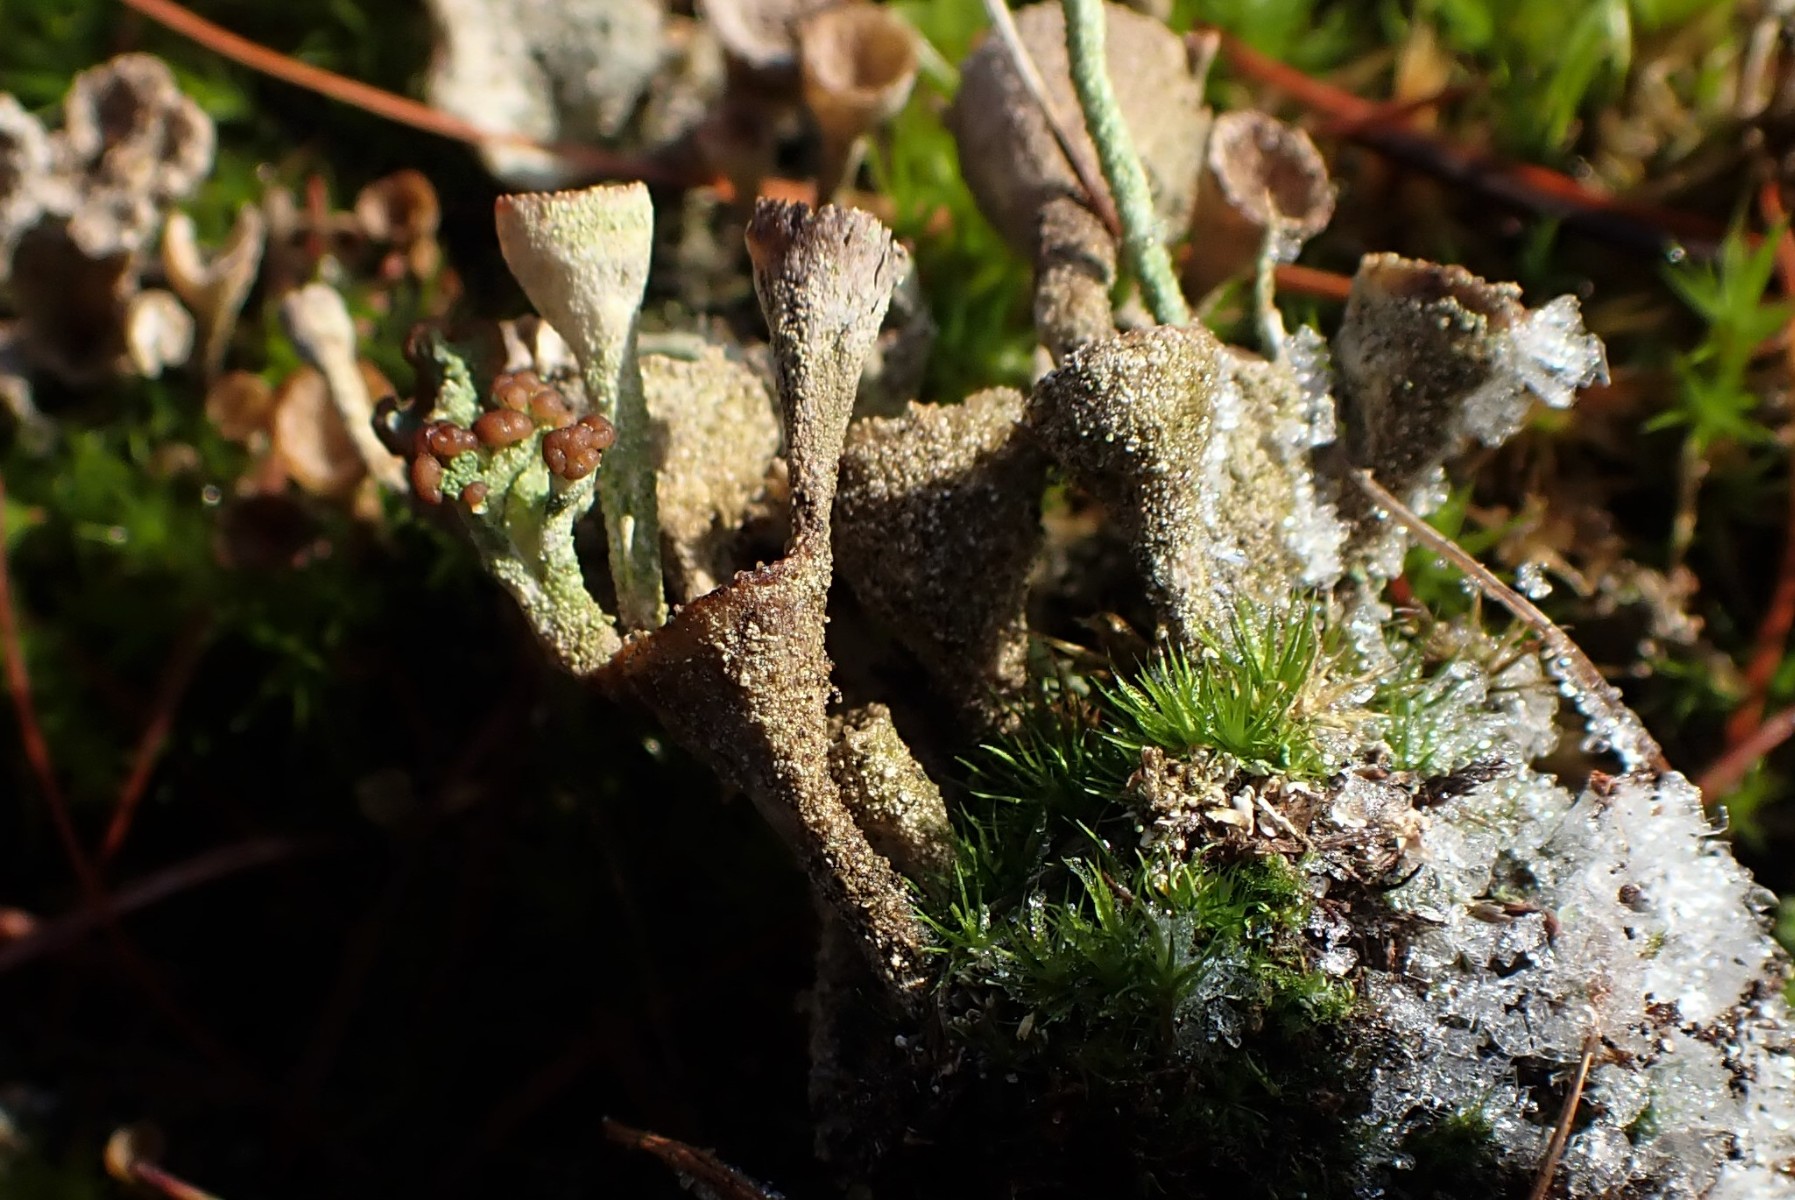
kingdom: Fungi
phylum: Ascomycota
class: Lecanoromycetes
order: Lecanorales
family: Cladoniaceae
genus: Cladonia
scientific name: Cladonia
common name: brungrøn bægerlav
